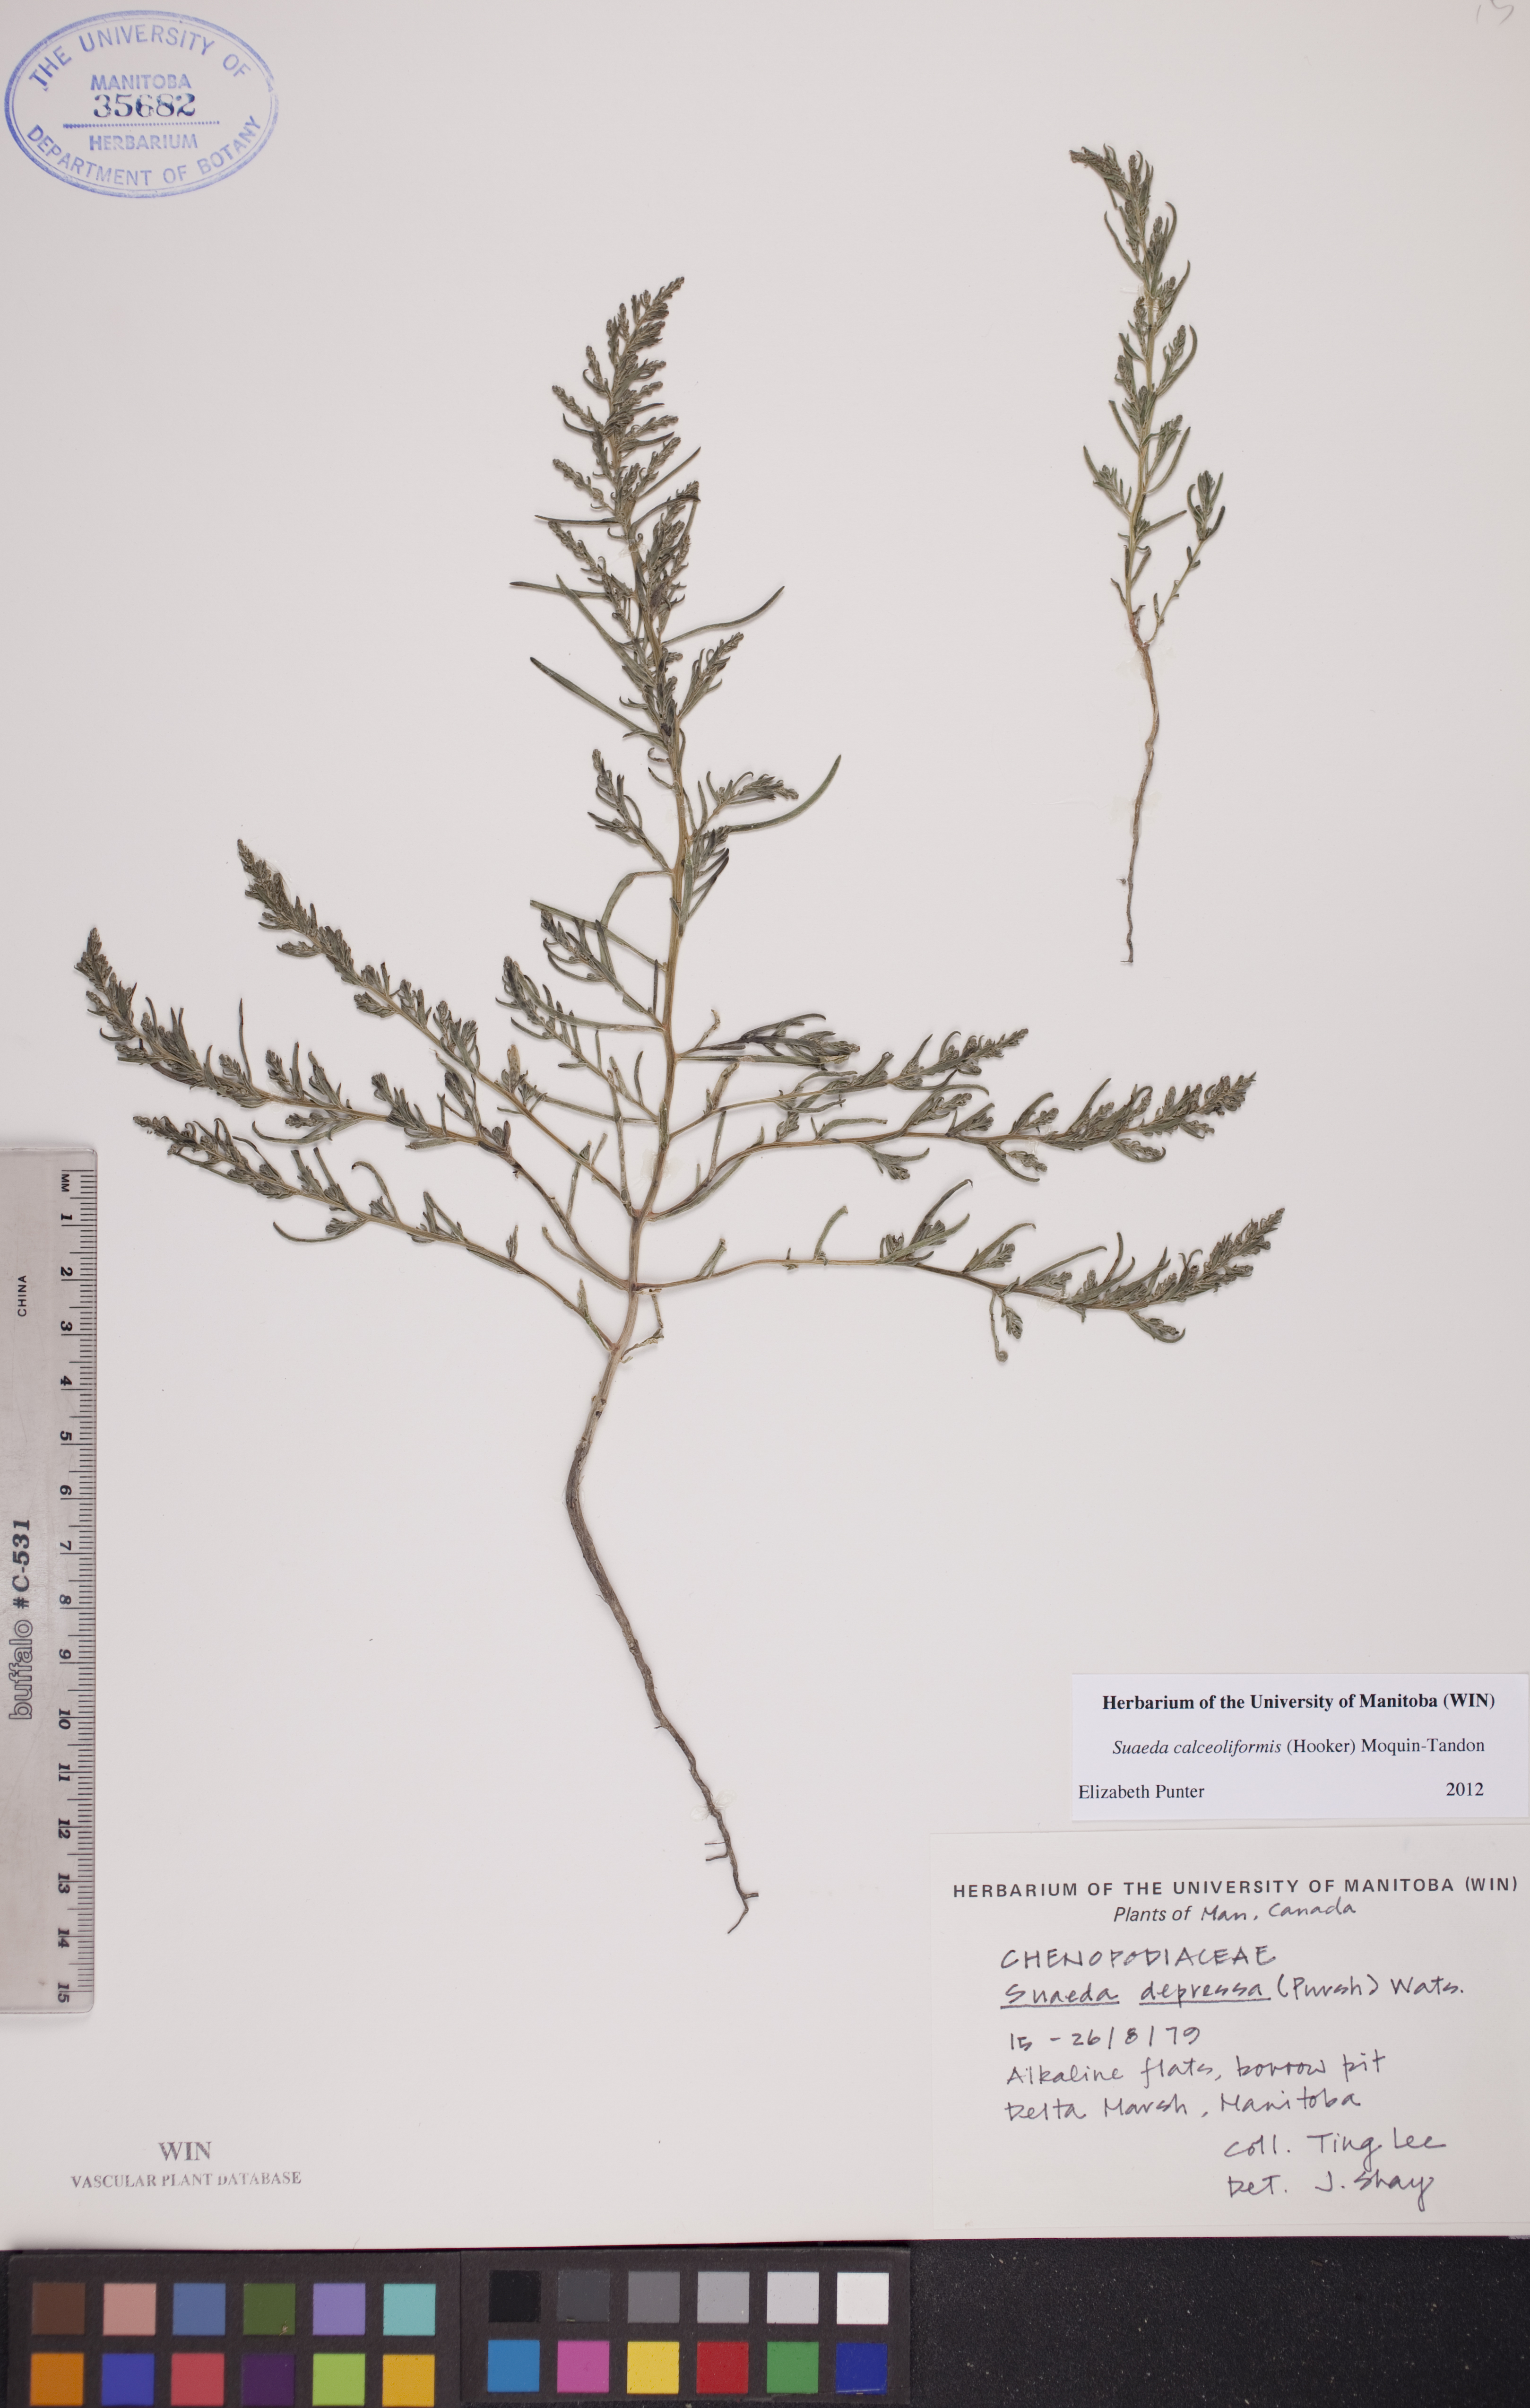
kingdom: Plantae
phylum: Tracheophyta
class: Magnoliopsida
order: Caryophyllales
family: Amaranthaceae
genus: Suaeda
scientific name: Suaeda calceoliformis
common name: Pursh's seepweed
